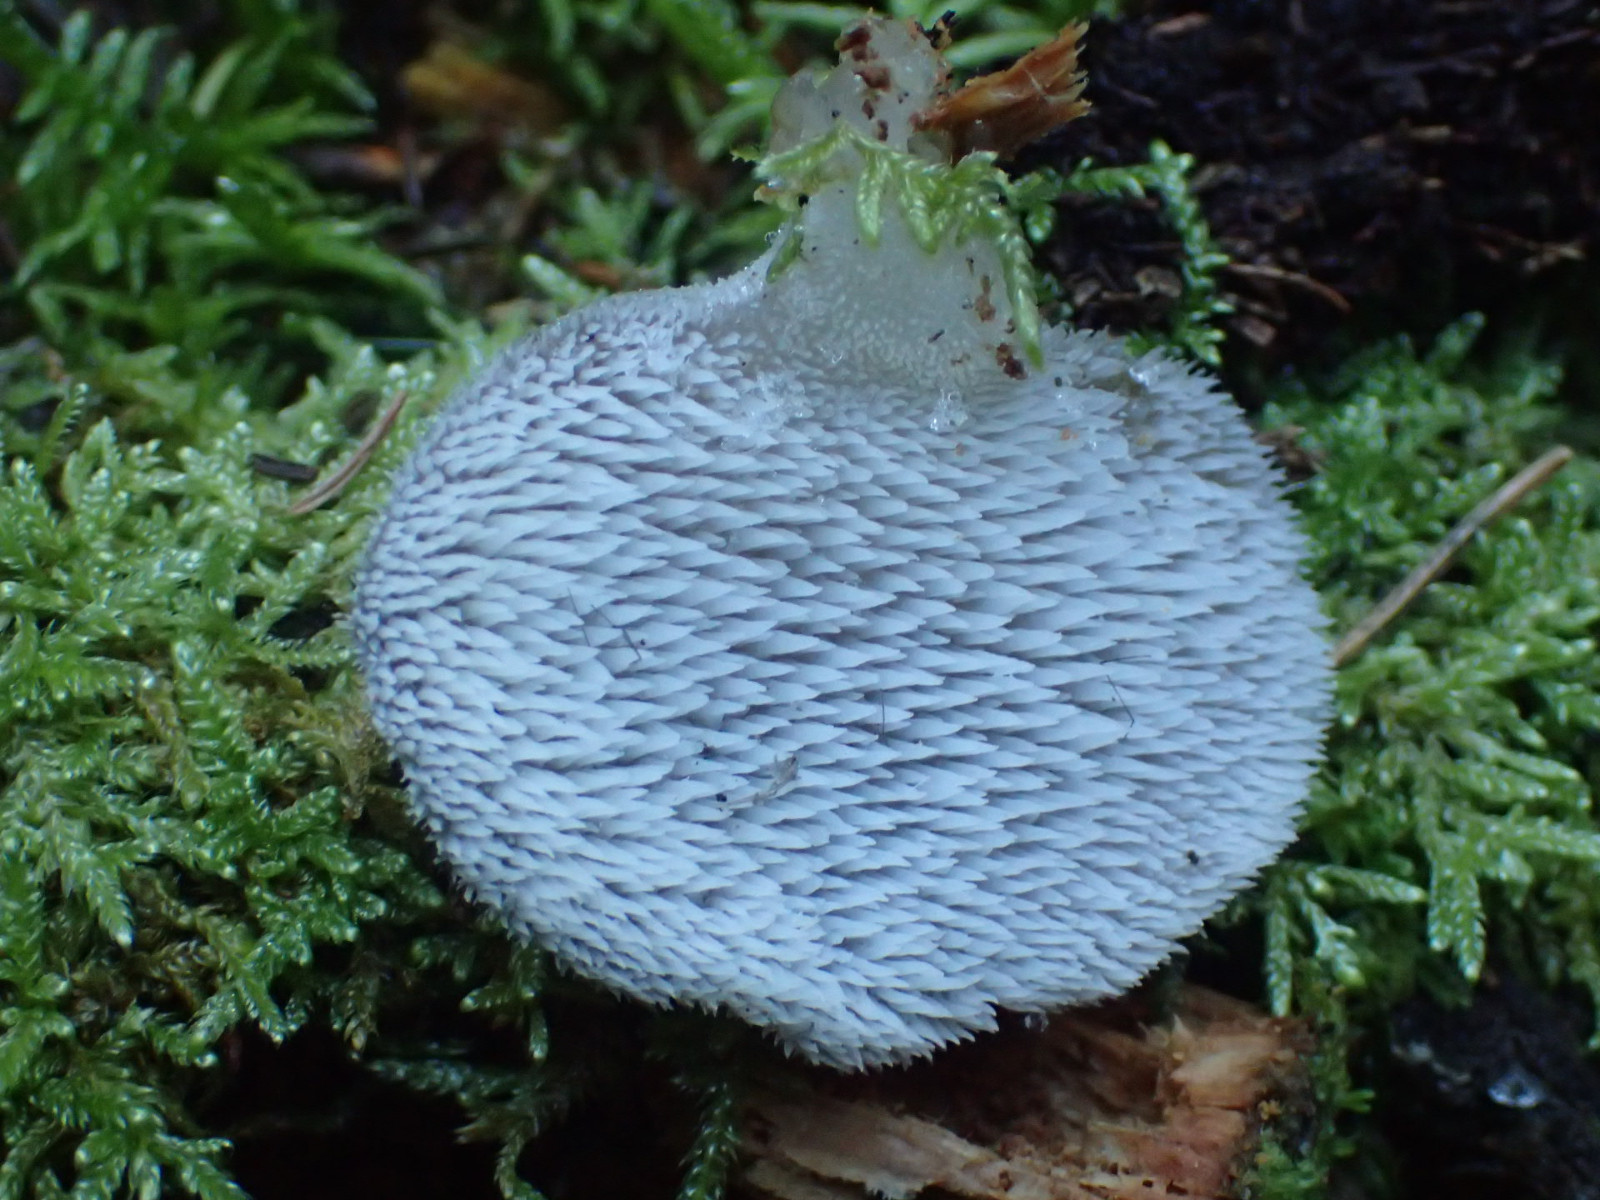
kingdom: Fungi
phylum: Basidiomycota
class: Agaricomycetes
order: Auriculariales
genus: Pseudohydnum
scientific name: Pseudohydnum gelatinosum
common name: bævretand
